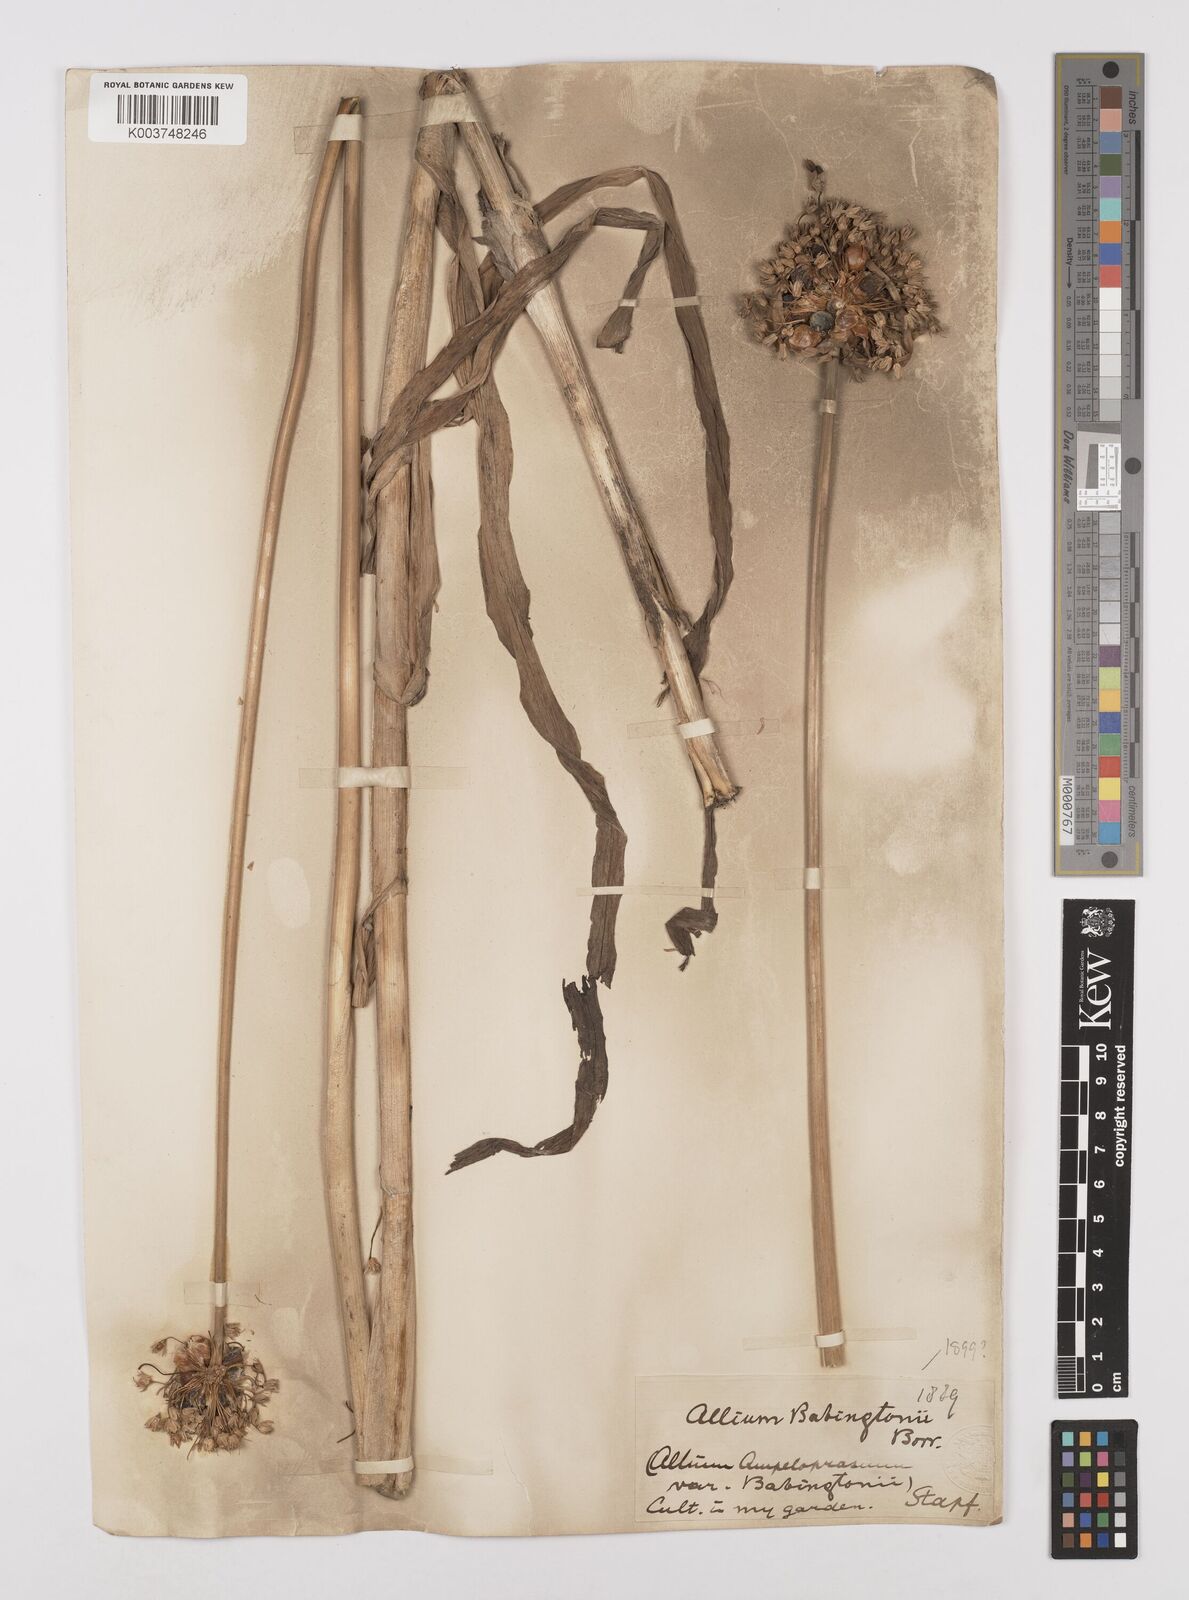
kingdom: Plantae
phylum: Tracheophyta
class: Liliopsida
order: Asparagales
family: Amaryllidaceae
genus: Allium
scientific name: Allium ampeloprasum
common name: Wild leek
